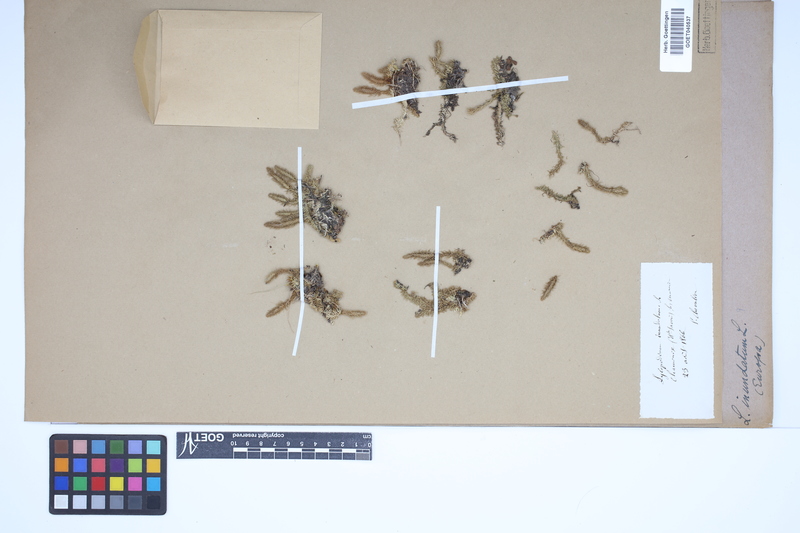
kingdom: Plantae
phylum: Tracheophyta
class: Lycopodiopsida
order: Lycopodiales
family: Lycopodiaceae
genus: Lycopodiella
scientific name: Lycopodiella inundata
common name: Marsh clubmoss
